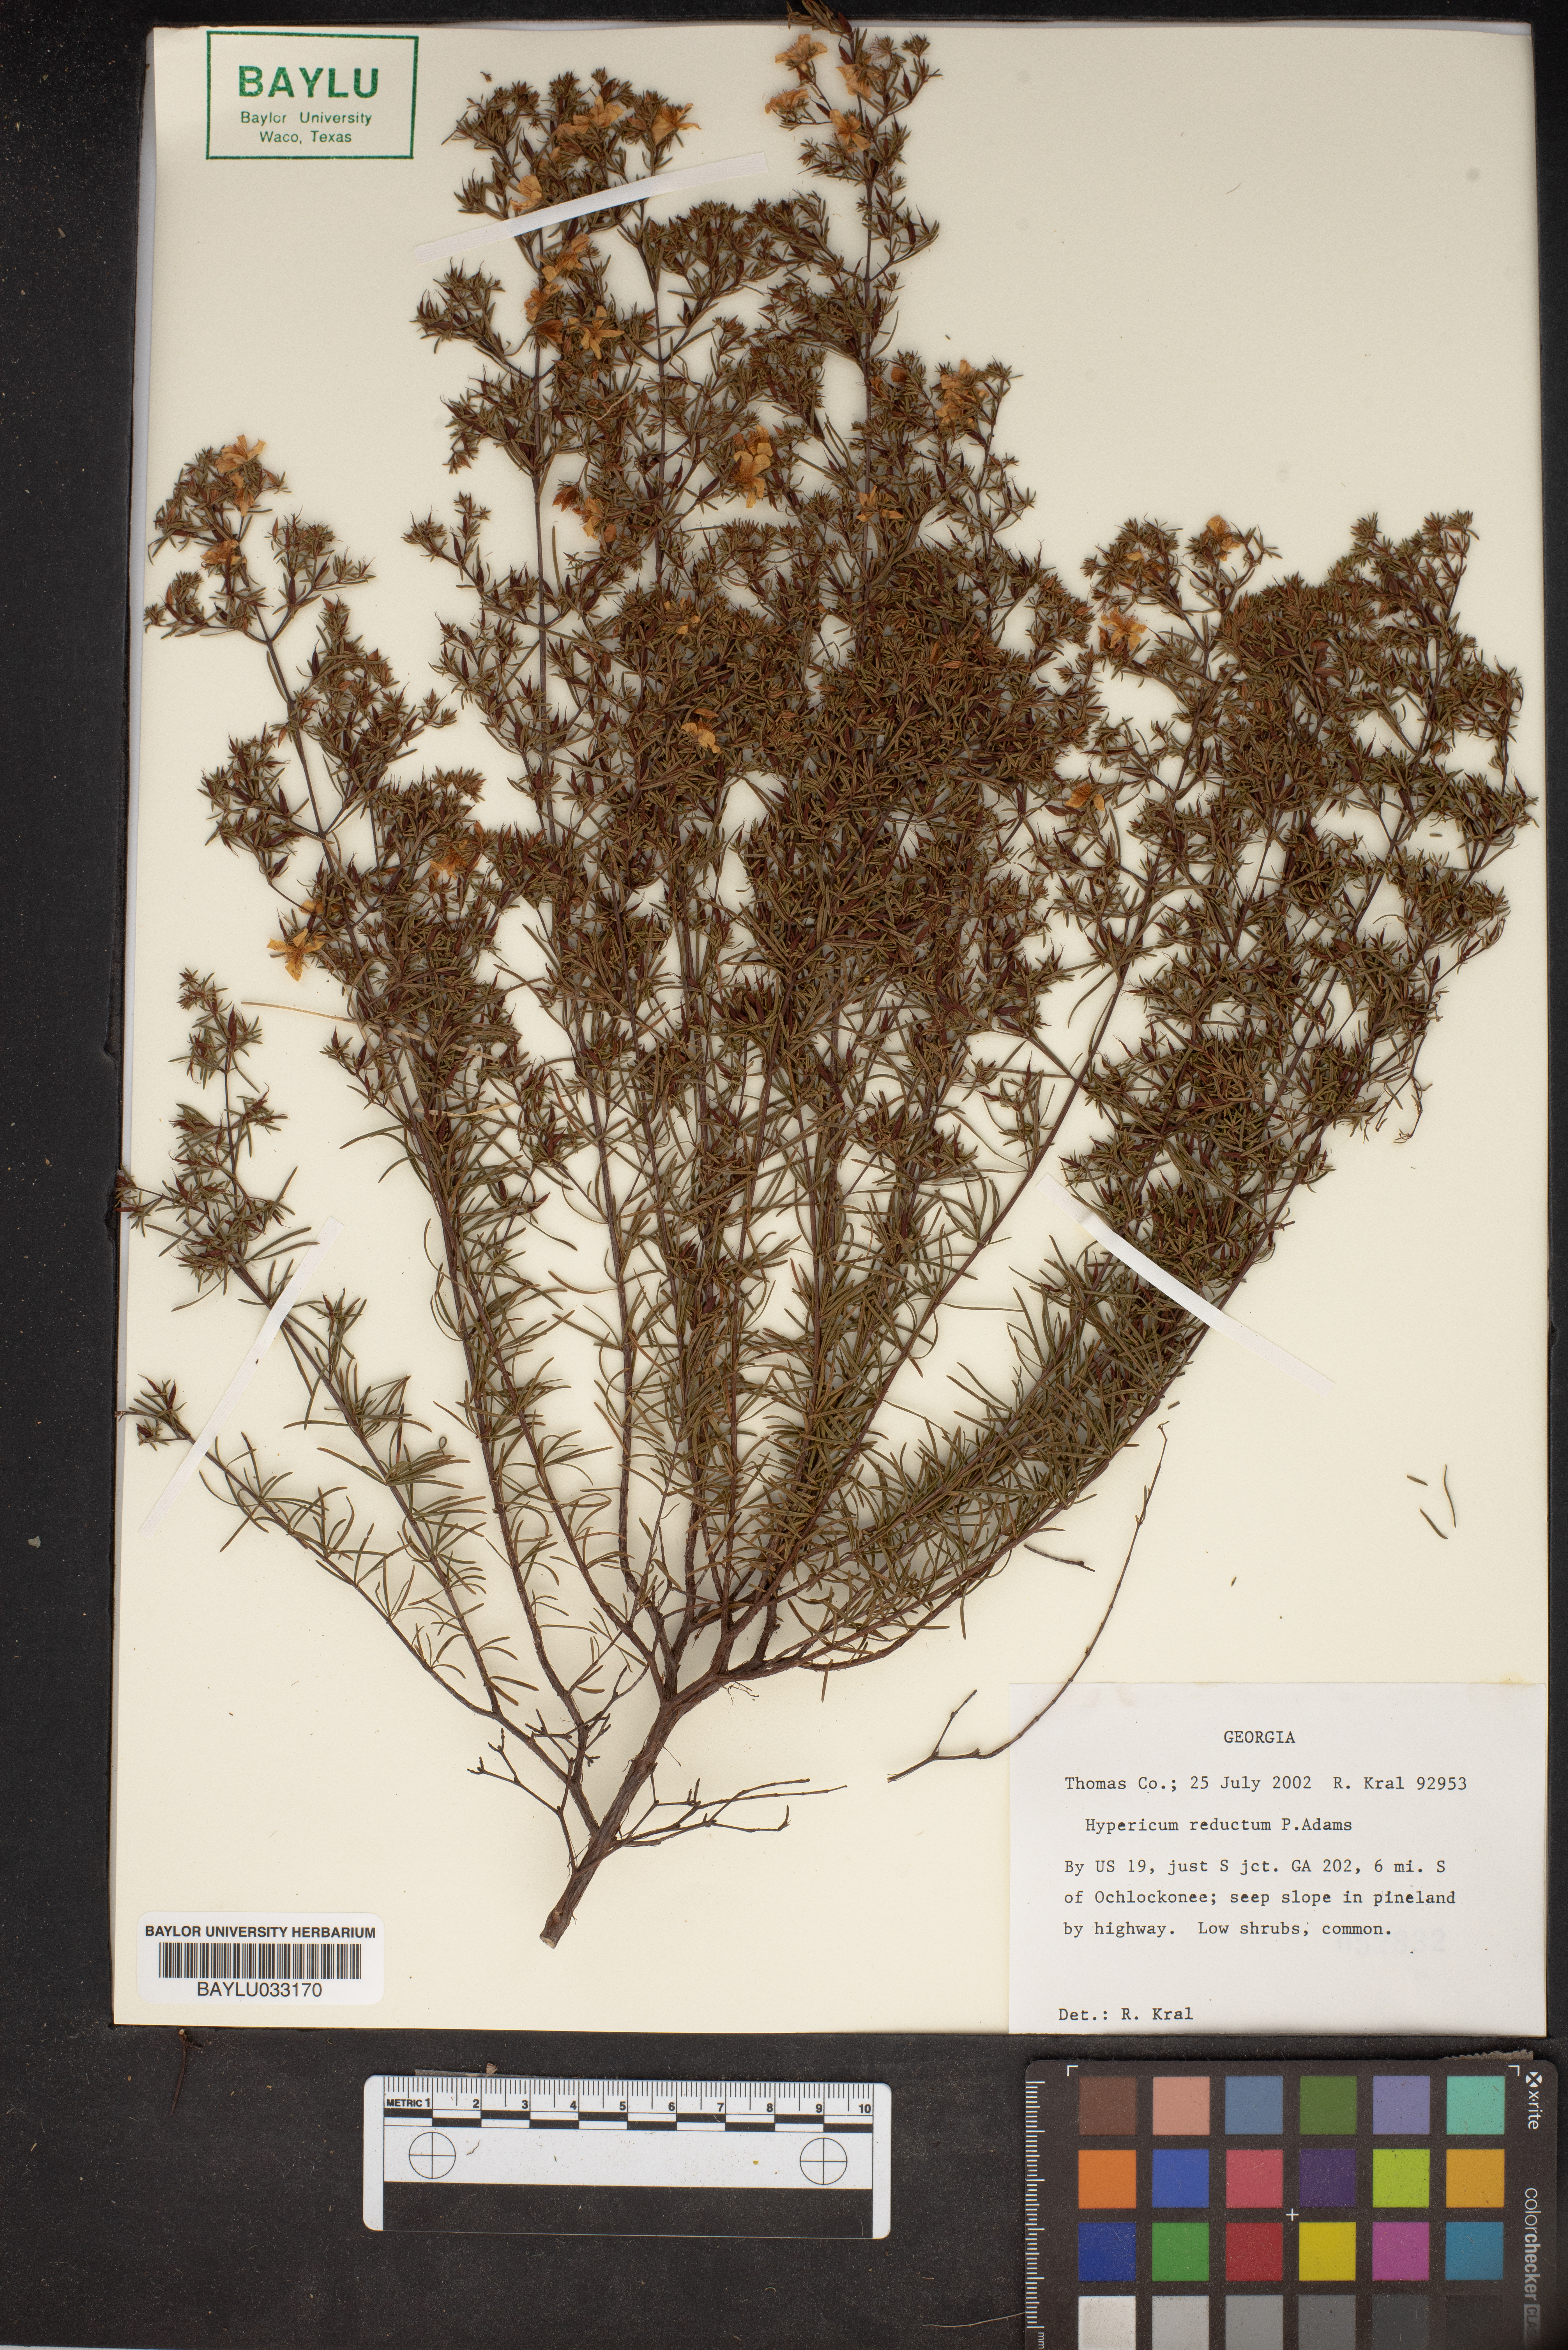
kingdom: Plantae
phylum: Tracheophyta
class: Magnoliopsida
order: Malpighiales
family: Hypericaceae
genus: Hypericum
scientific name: Hypericum tenuifolium
